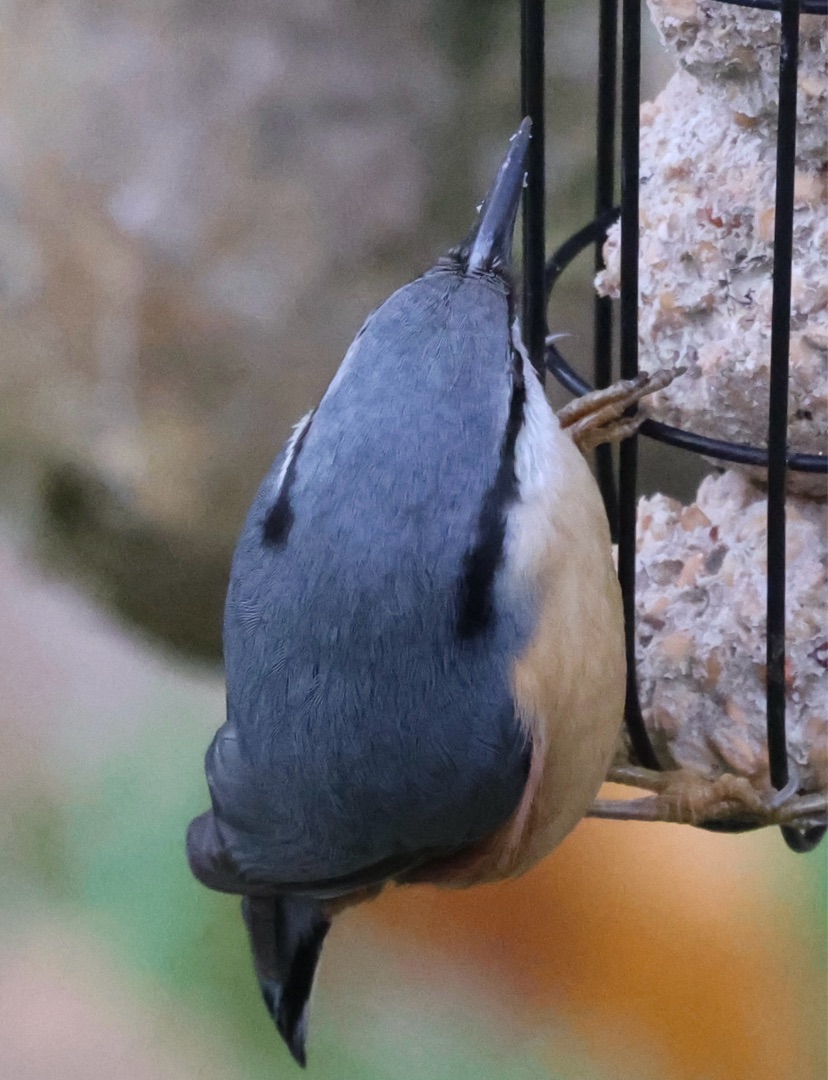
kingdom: Animalia
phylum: Chordata
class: Aves
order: Passeriformes
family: Sittidae
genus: Sitta
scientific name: Sitta europaea
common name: Spætmejse
